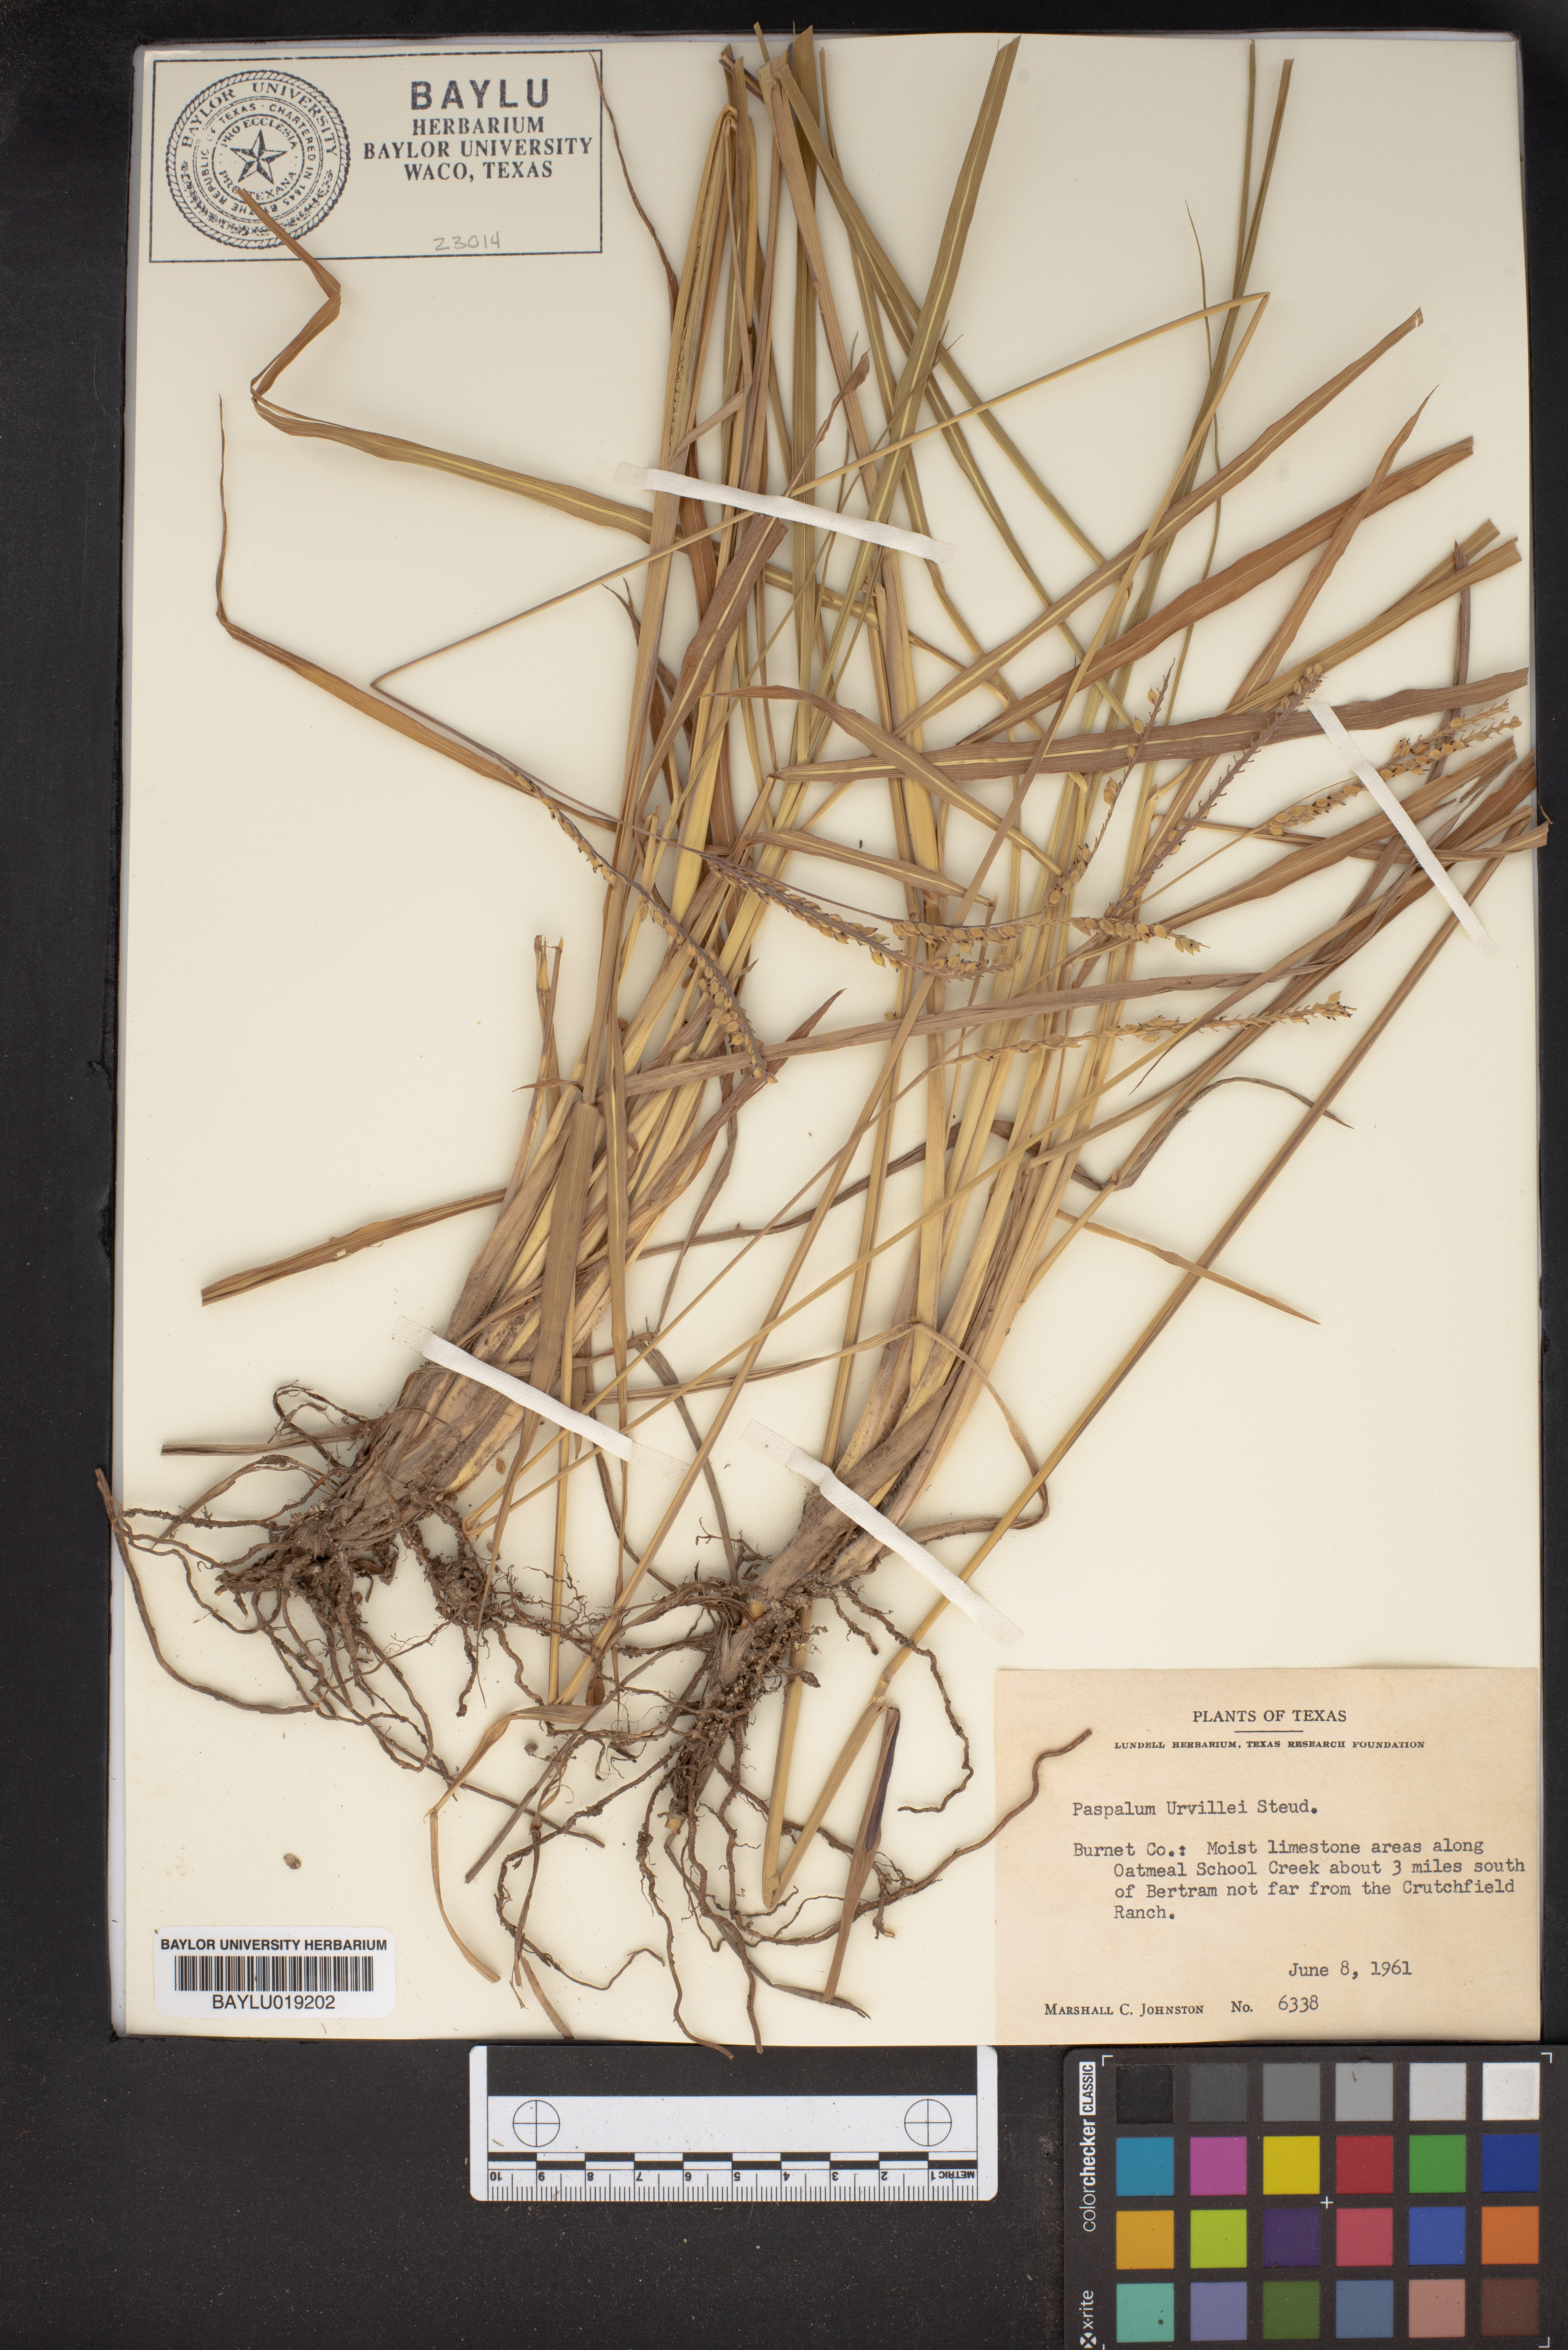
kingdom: Plantae
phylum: Tracheophyta
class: Liliopsida
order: Poales
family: Poaceae
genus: Paspalum
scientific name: Paspalum urvillei
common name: Vasey's grass
